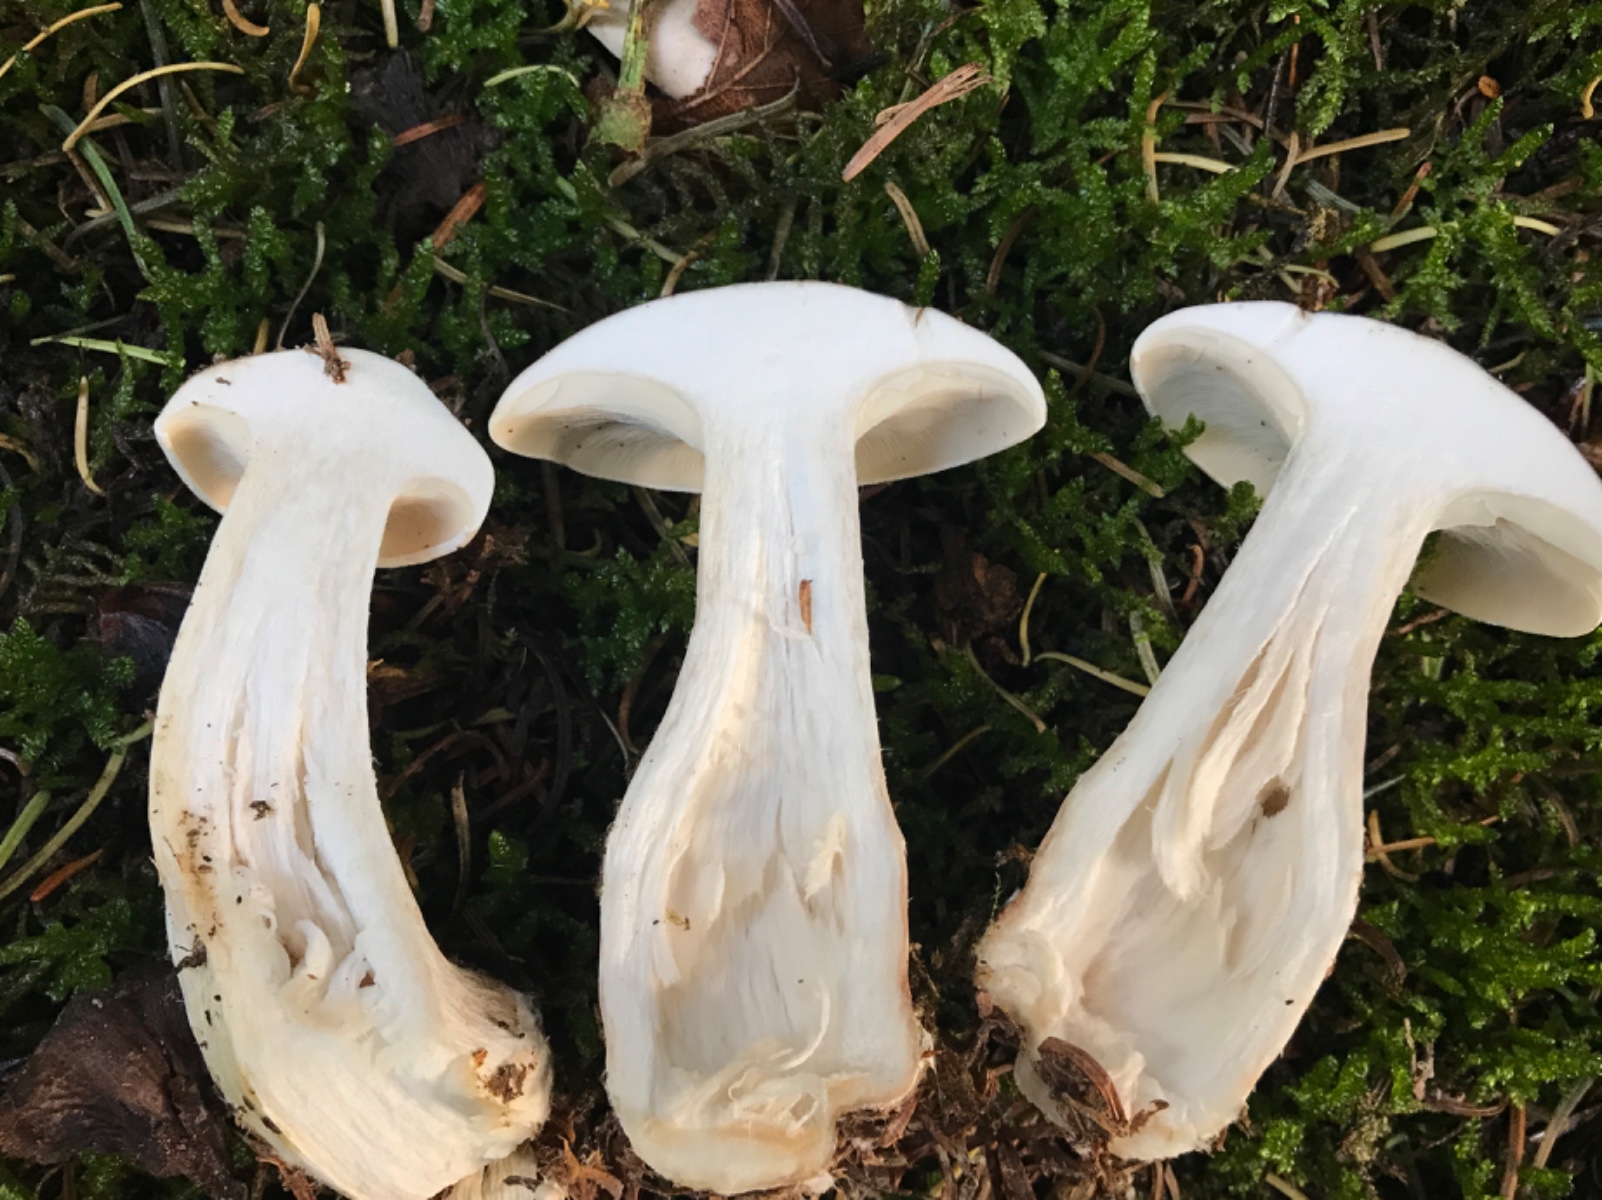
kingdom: Fungi
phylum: Basidiomycota
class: Agaricomycetes
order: Agaricales
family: Tricholomataceae
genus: Clitocybe
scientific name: Clitocybe nebularis
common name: tåge-tragthat
